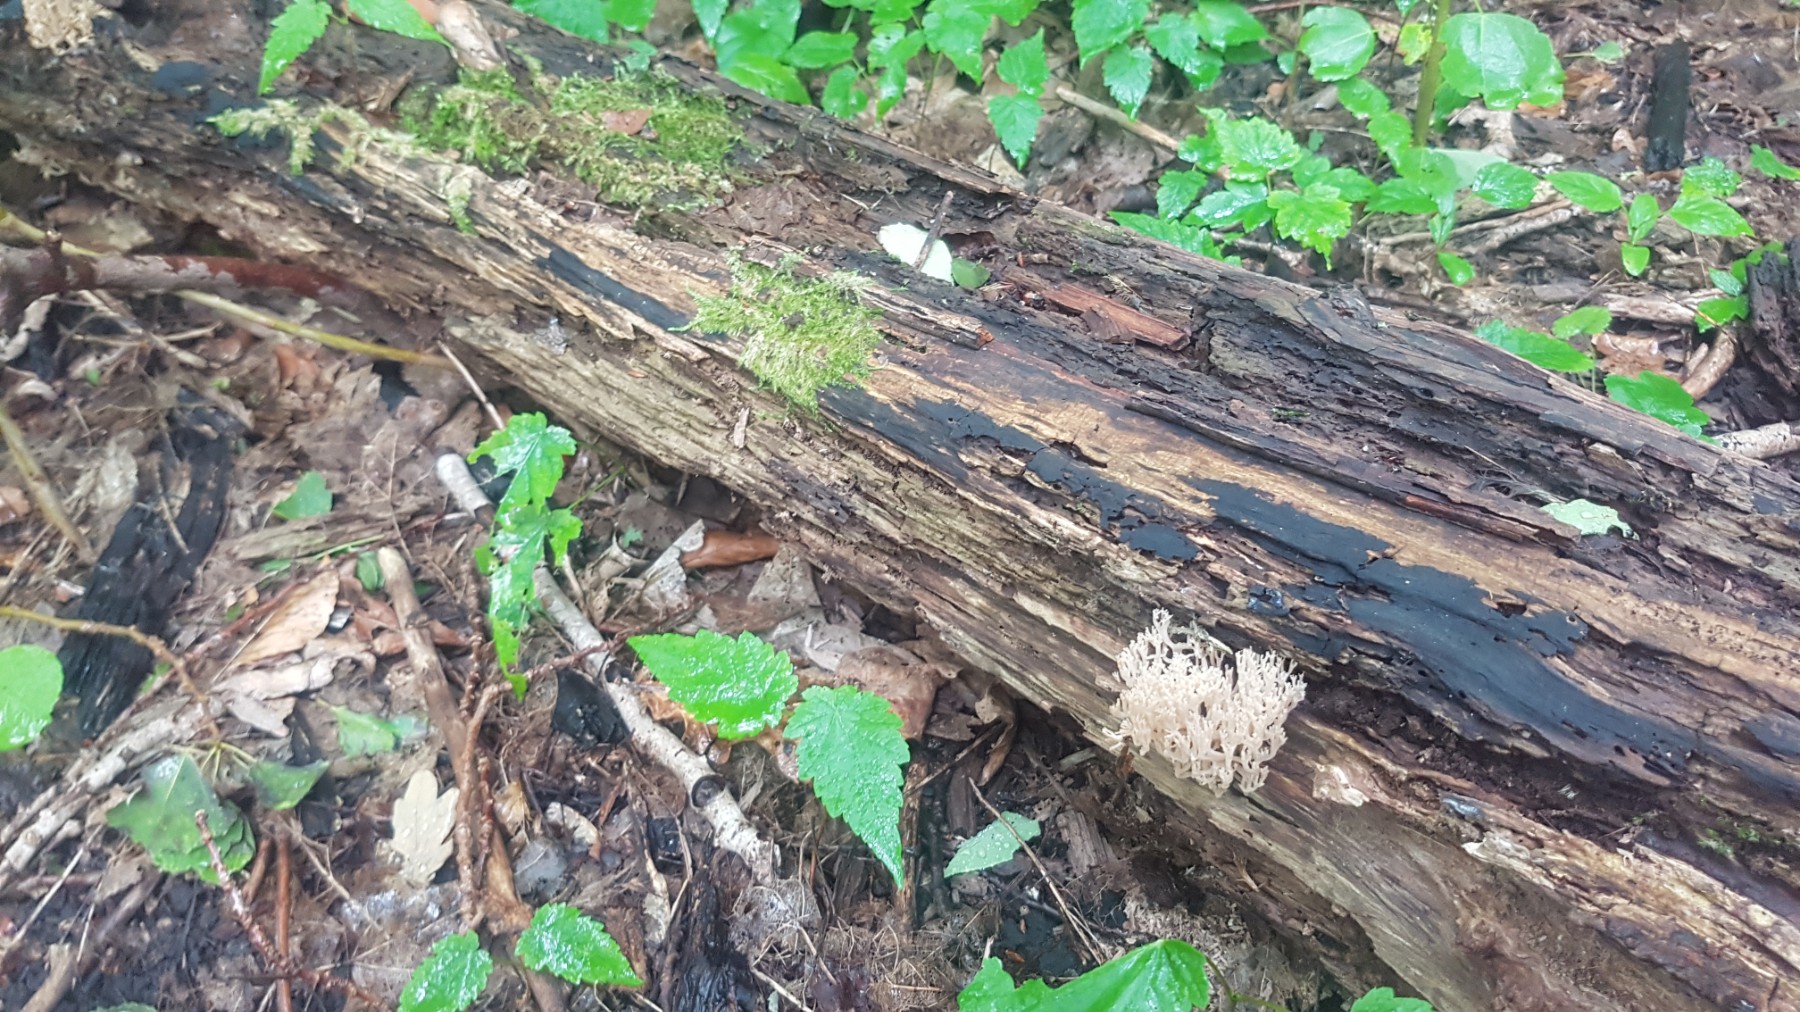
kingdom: Fungi
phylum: Basidiomycota
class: Agaricomycetes
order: Russulales
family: Auriscalpiaceae
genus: Artomyces
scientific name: Artomyces pyxidatus
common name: kandelabersvamp
